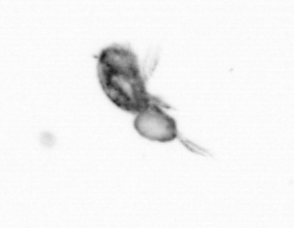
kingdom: Animalia
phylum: Arthropoda
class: Copepoda
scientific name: Copepoda
